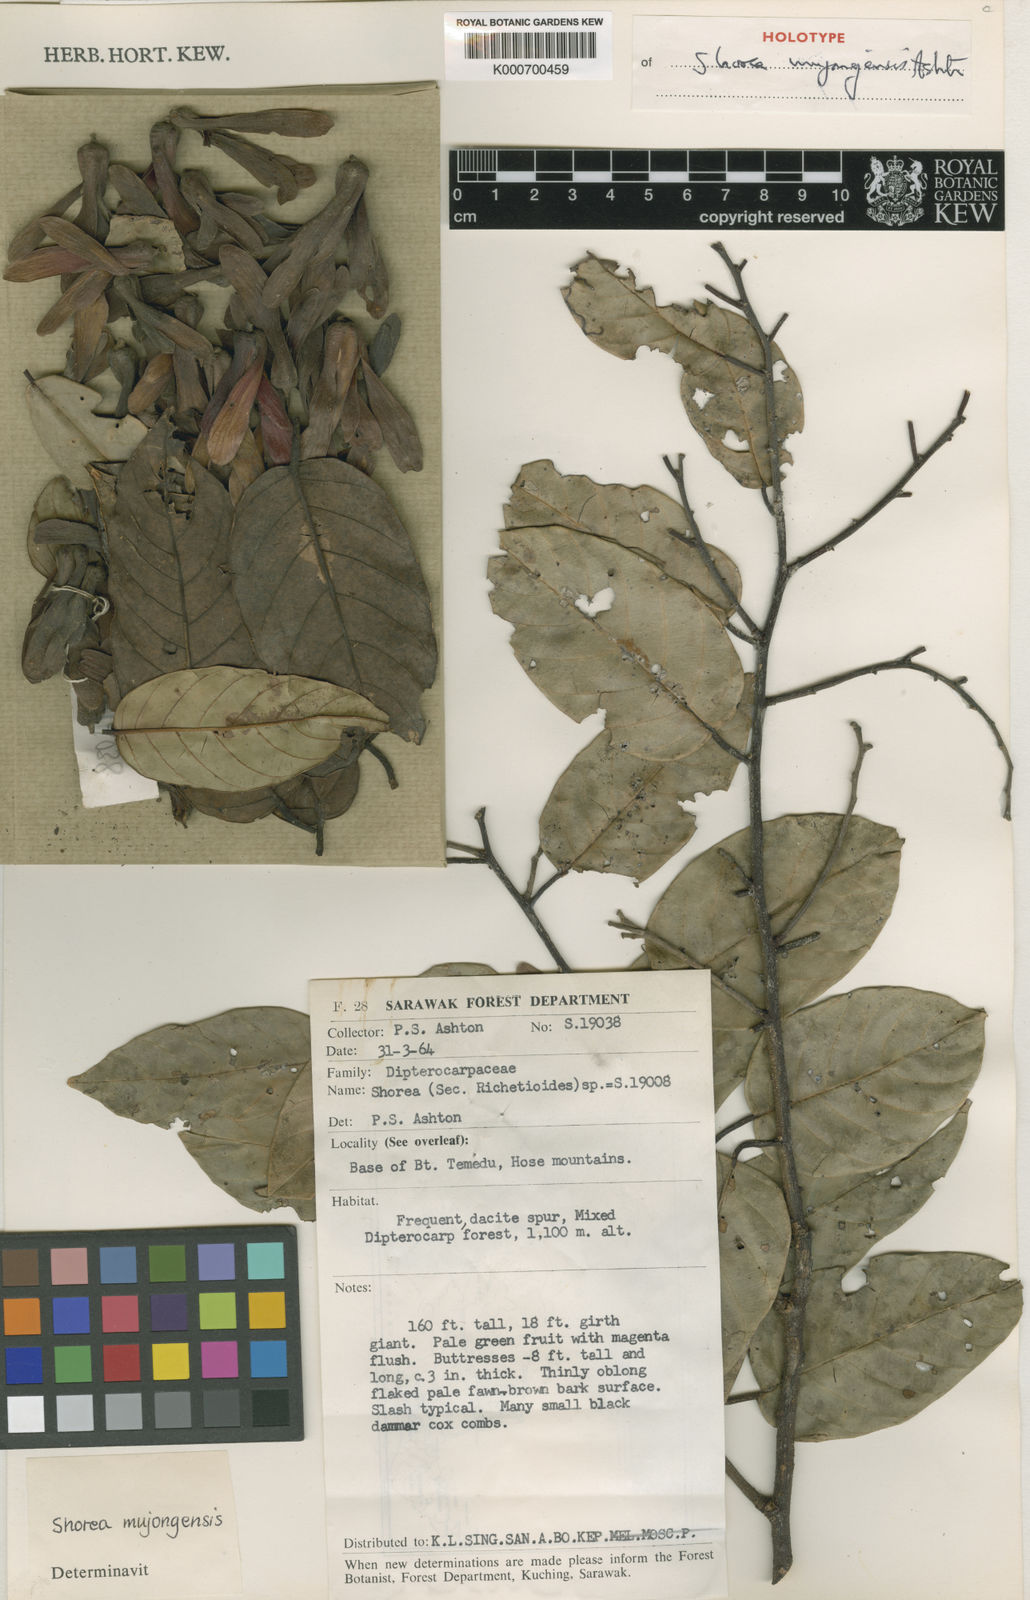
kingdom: Plantae
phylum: Tracheophyta
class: Magnoliopsida
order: Malvales
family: Dipterocarpaceae
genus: Shorea
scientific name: Shorea mujongensis
